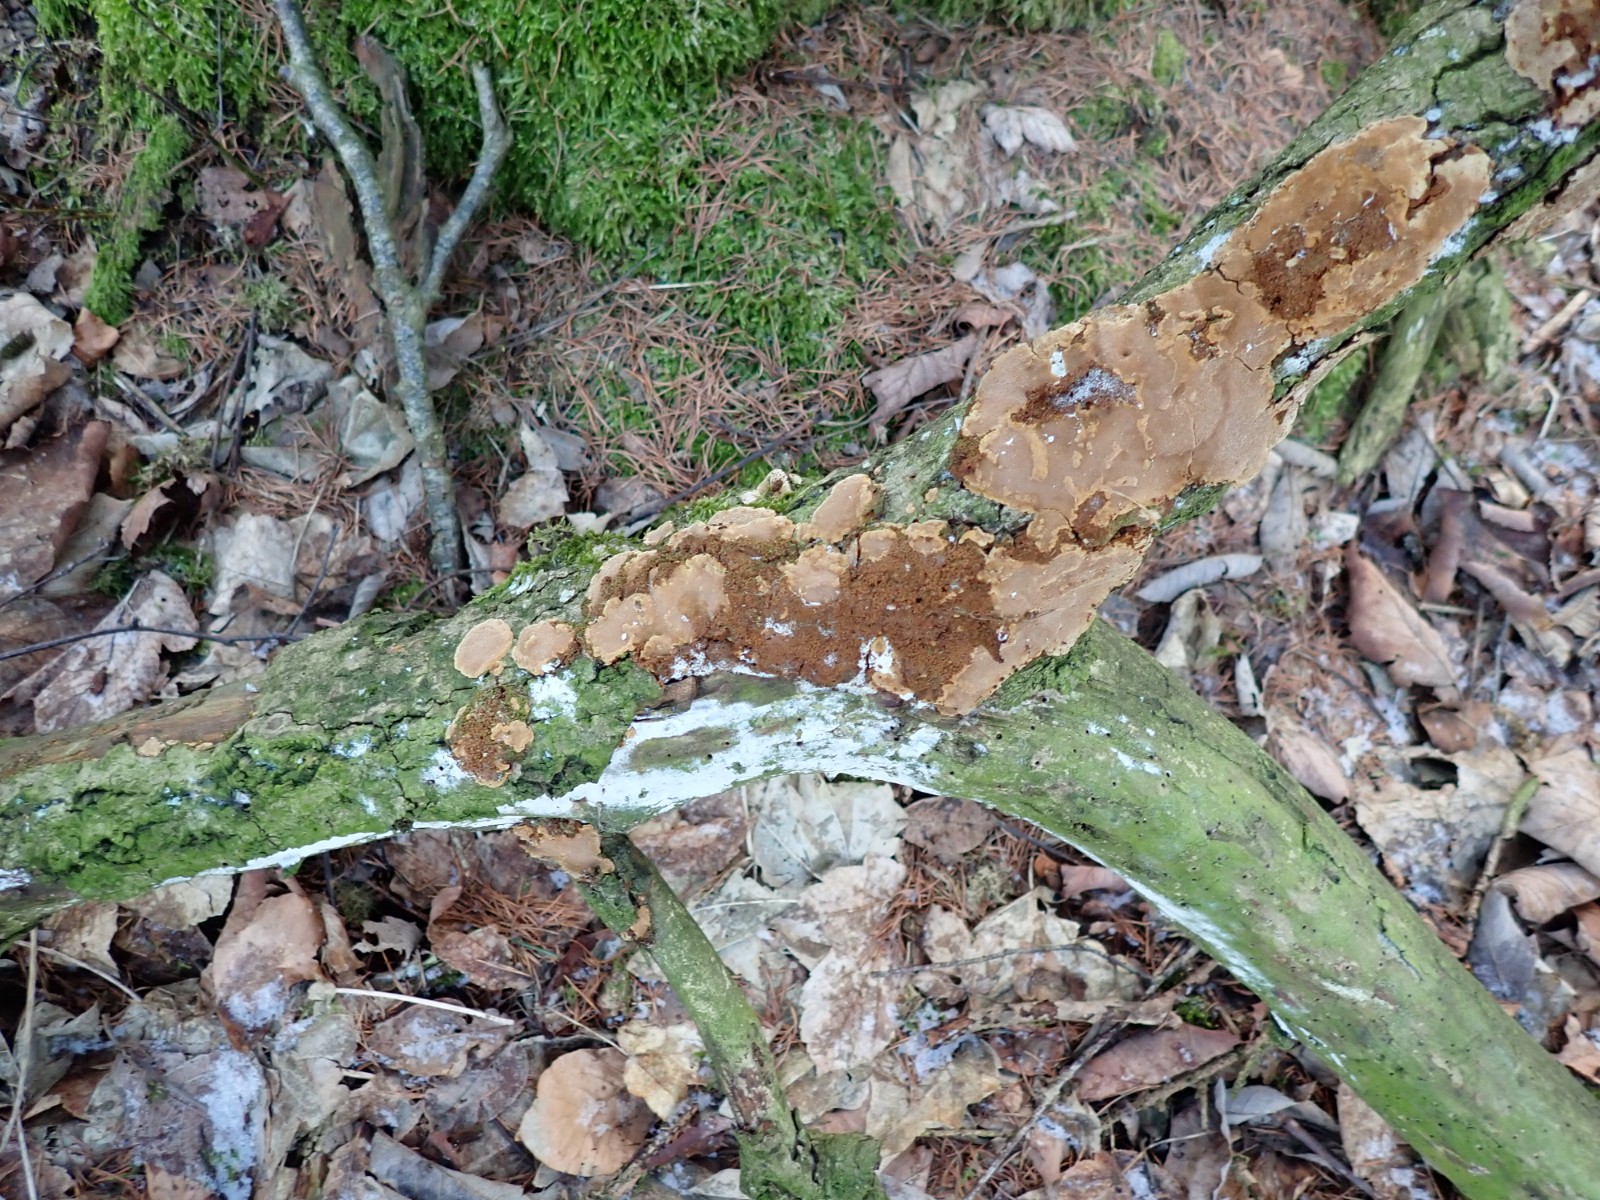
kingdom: Fungi
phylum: Basidiomycota
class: Agaricomycetes
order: Hymenochaetales
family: Hymenochaetaceae
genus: Fuscoporia
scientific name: Fuscoporia ferrea
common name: skorpe-ildporesvamp
